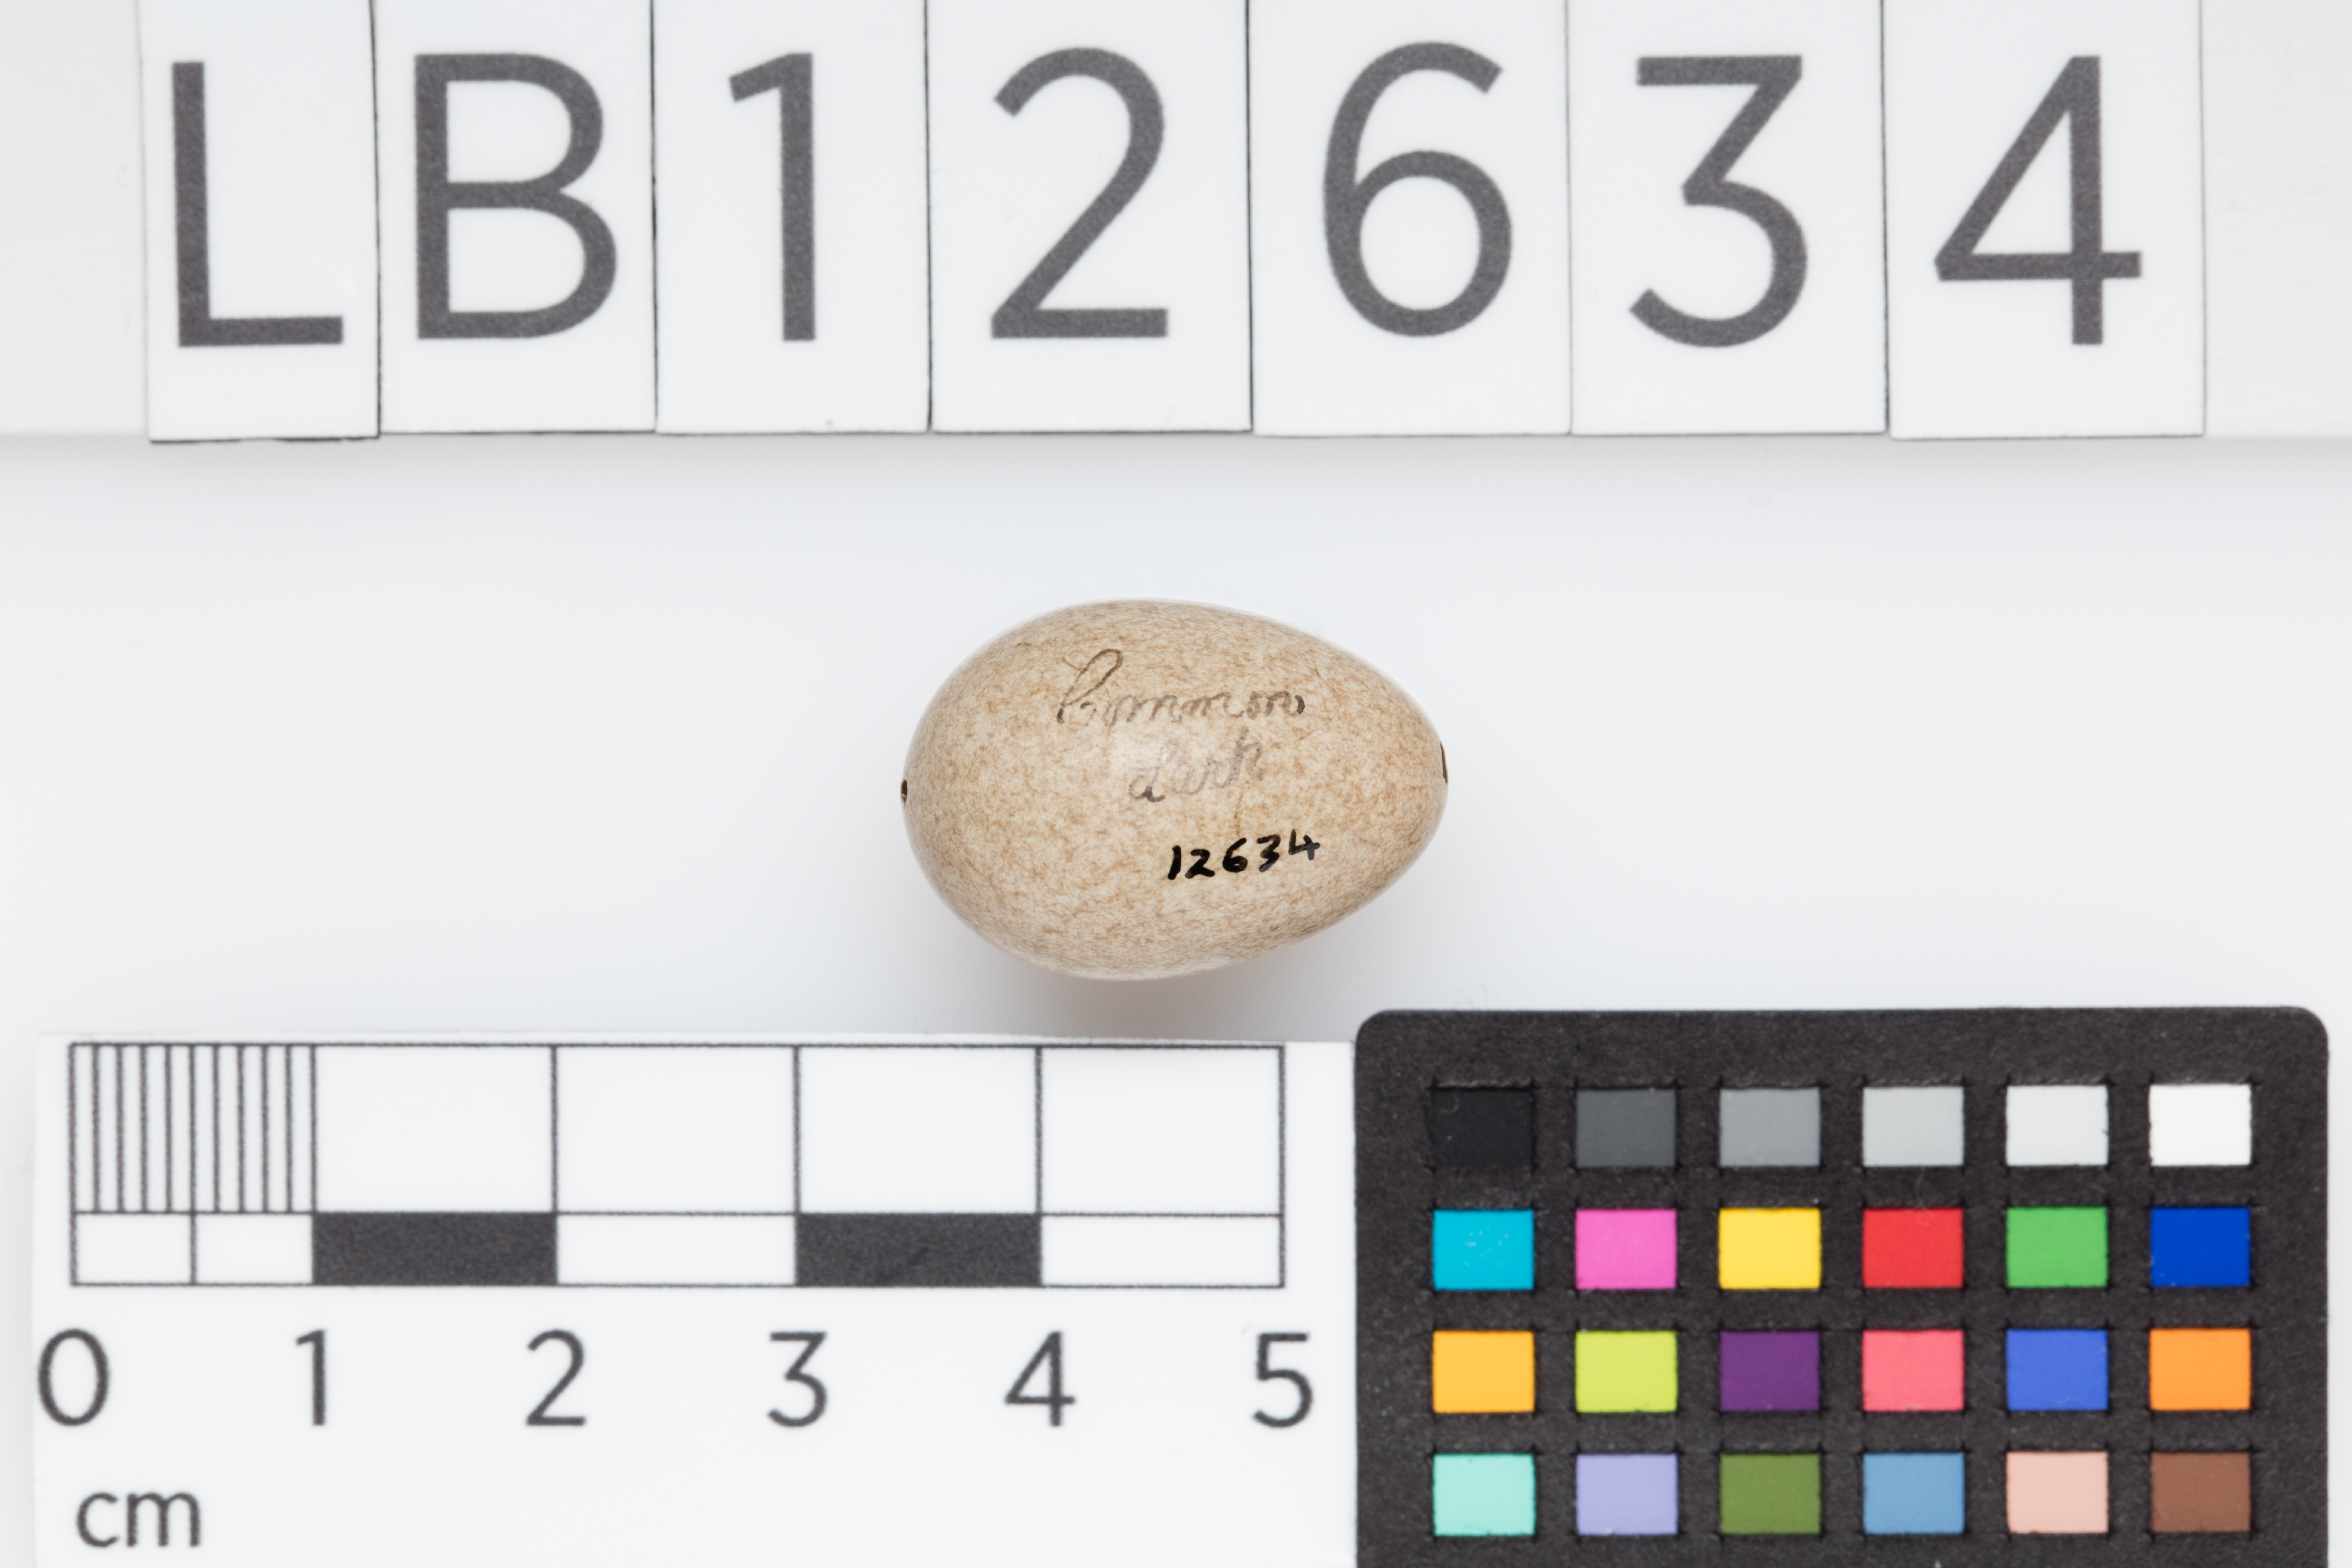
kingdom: Animalia
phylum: Chordata
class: Aves
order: Passeriformes
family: Alaudidae
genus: Mirafra
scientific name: Mirafra javanica
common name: Horsfield's bush lark
